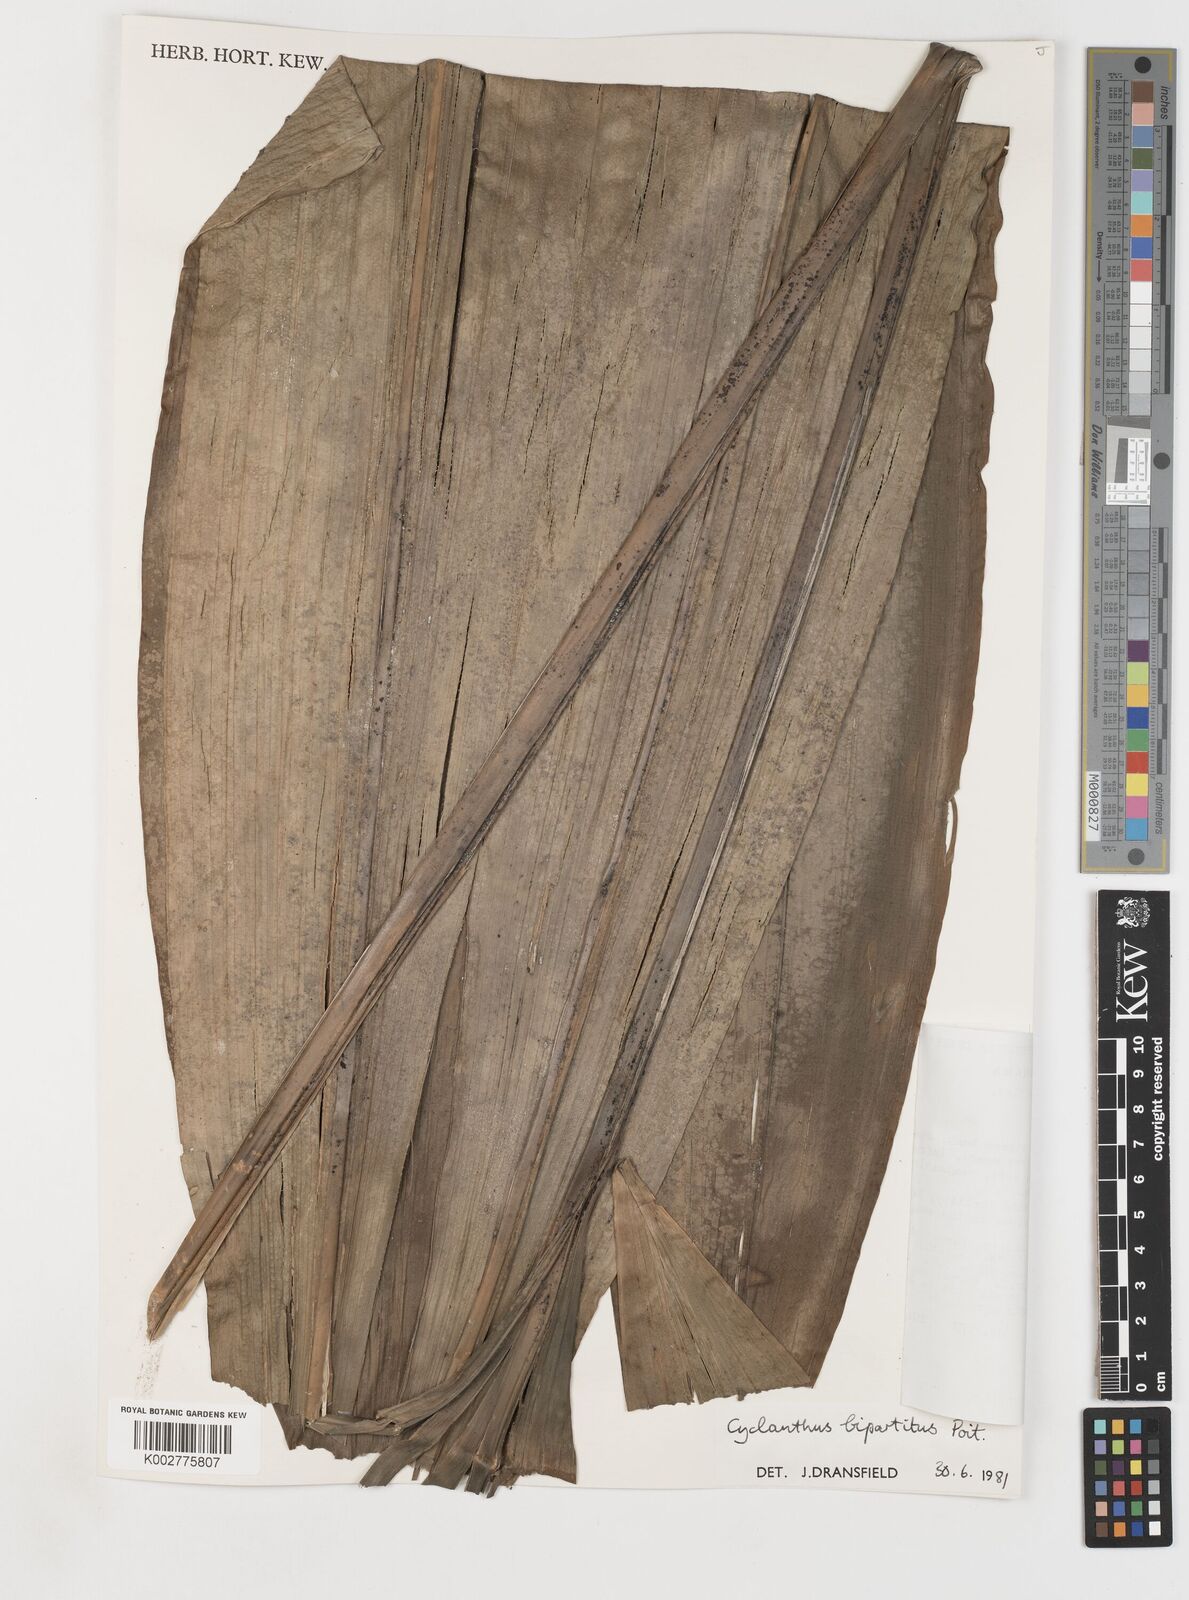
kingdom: Plantae
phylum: Tracheophyta
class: Liliopsida
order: Pandanales
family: Cyclanthaceae
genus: Cyclanthus
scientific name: Cyclanthus bipartitus
